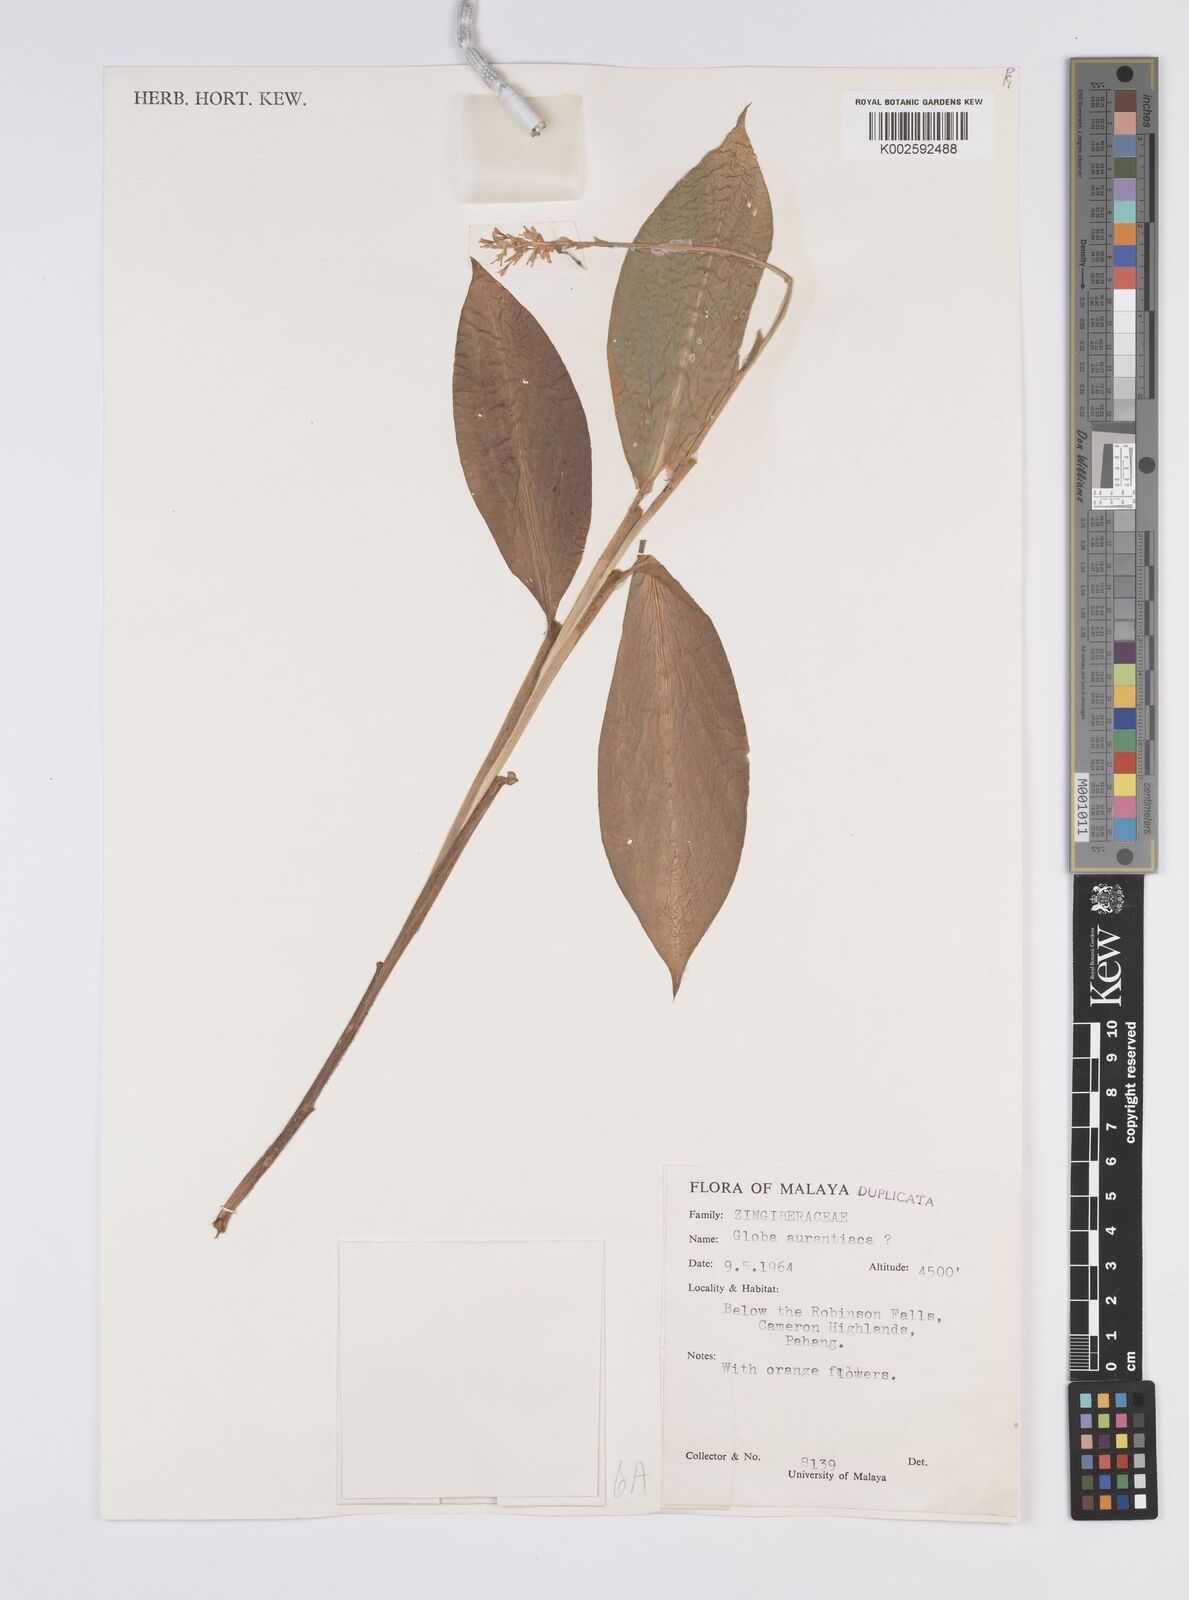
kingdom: Plantae
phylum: Tracheophyta
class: Liliopsida
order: Zingiberales
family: Zingiberaceae
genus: Globba
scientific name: Globba aurantiaca
